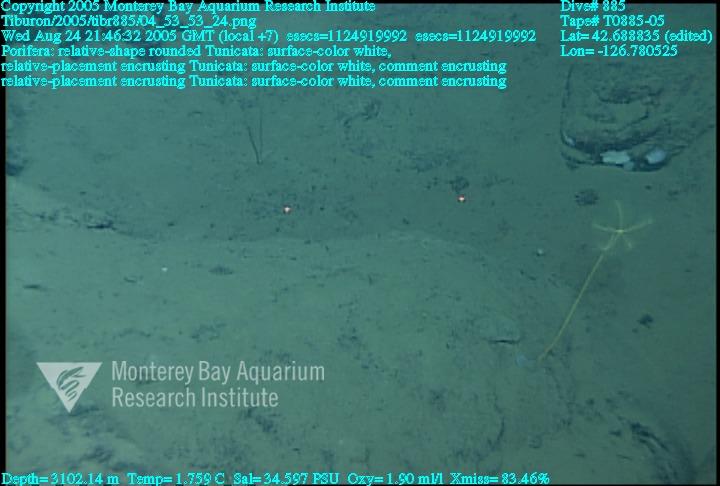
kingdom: Animalia
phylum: Porifera
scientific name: Porifera
